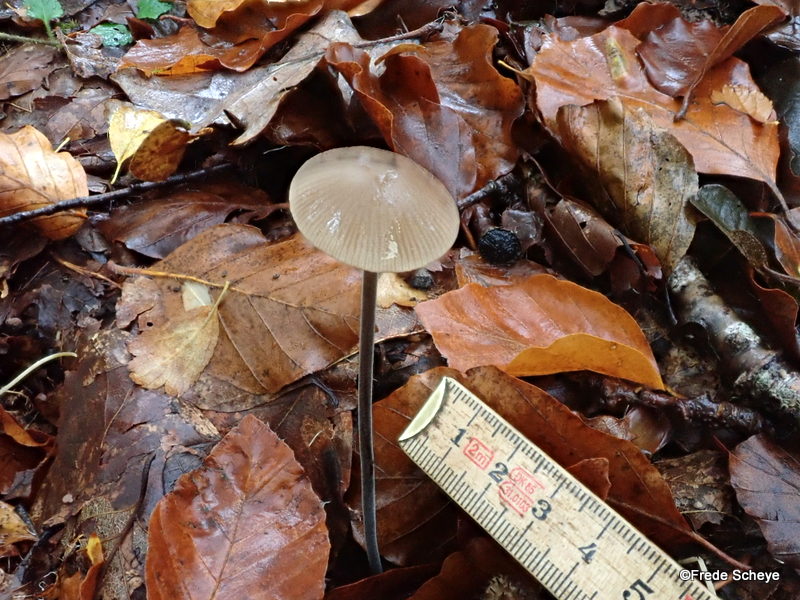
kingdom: Fungi
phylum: Basidiomycota
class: Agaricomycetes
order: Agaricales
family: Omphalotaceae
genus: Mycetinis
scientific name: Mycetinis alliaceus
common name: stor løghat
